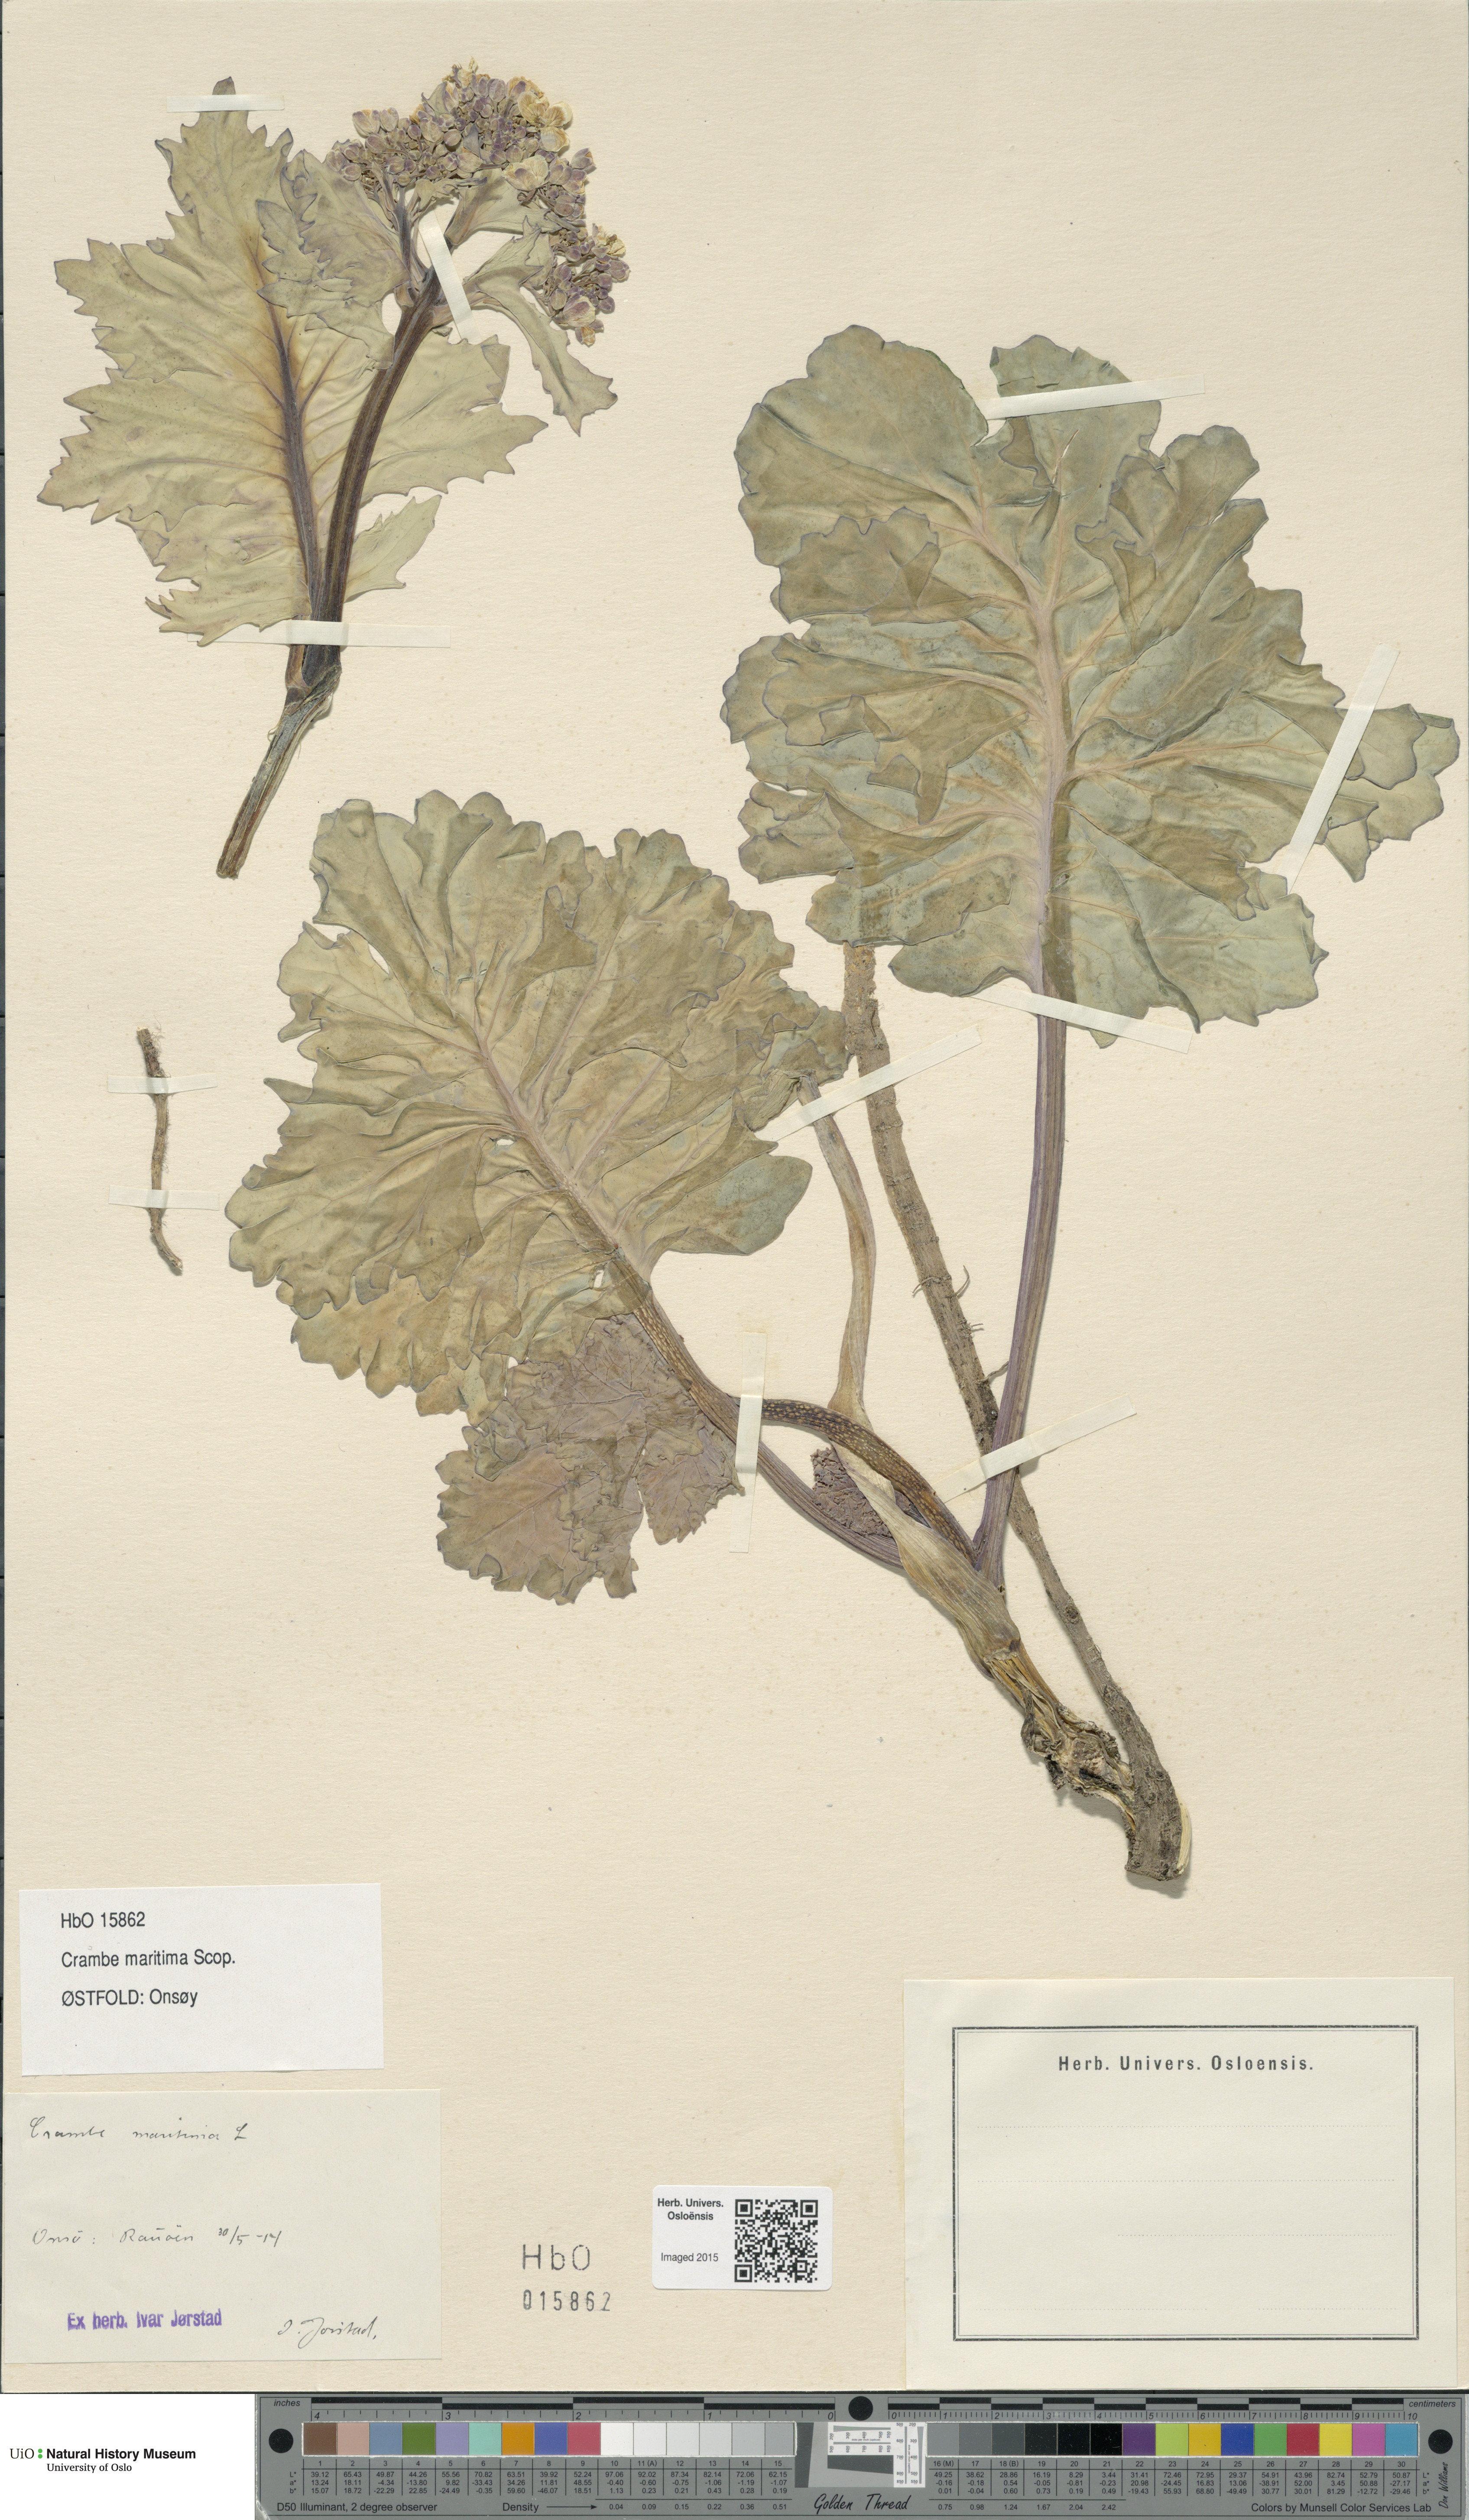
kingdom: Plantae
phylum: Tracheophyta
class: Magnoliopsida
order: Brassicales
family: Brassicaceae
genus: Crambe
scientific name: Crambe maritima
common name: Sea-kale
